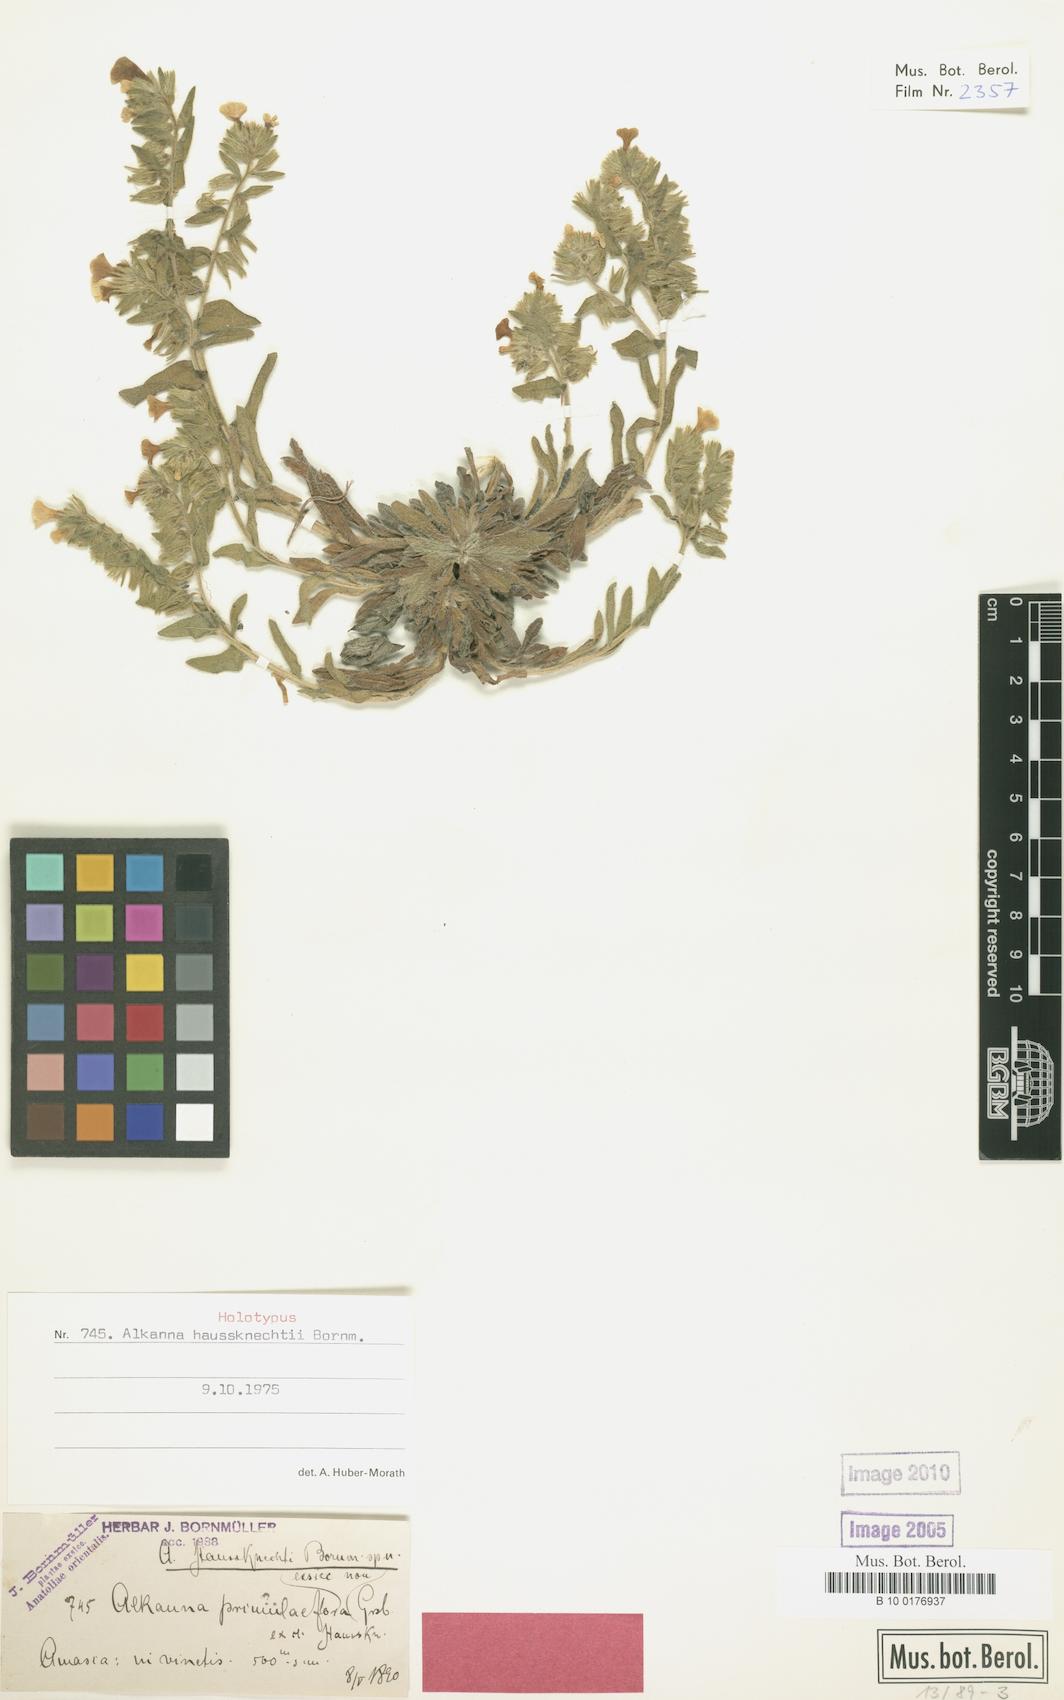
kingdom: Plantae
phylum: Tracheophyta
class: Magnoliopsida
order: Boraginales
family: Boraginaceae
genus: Alkanna
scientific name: Alkanna haussknechtii
